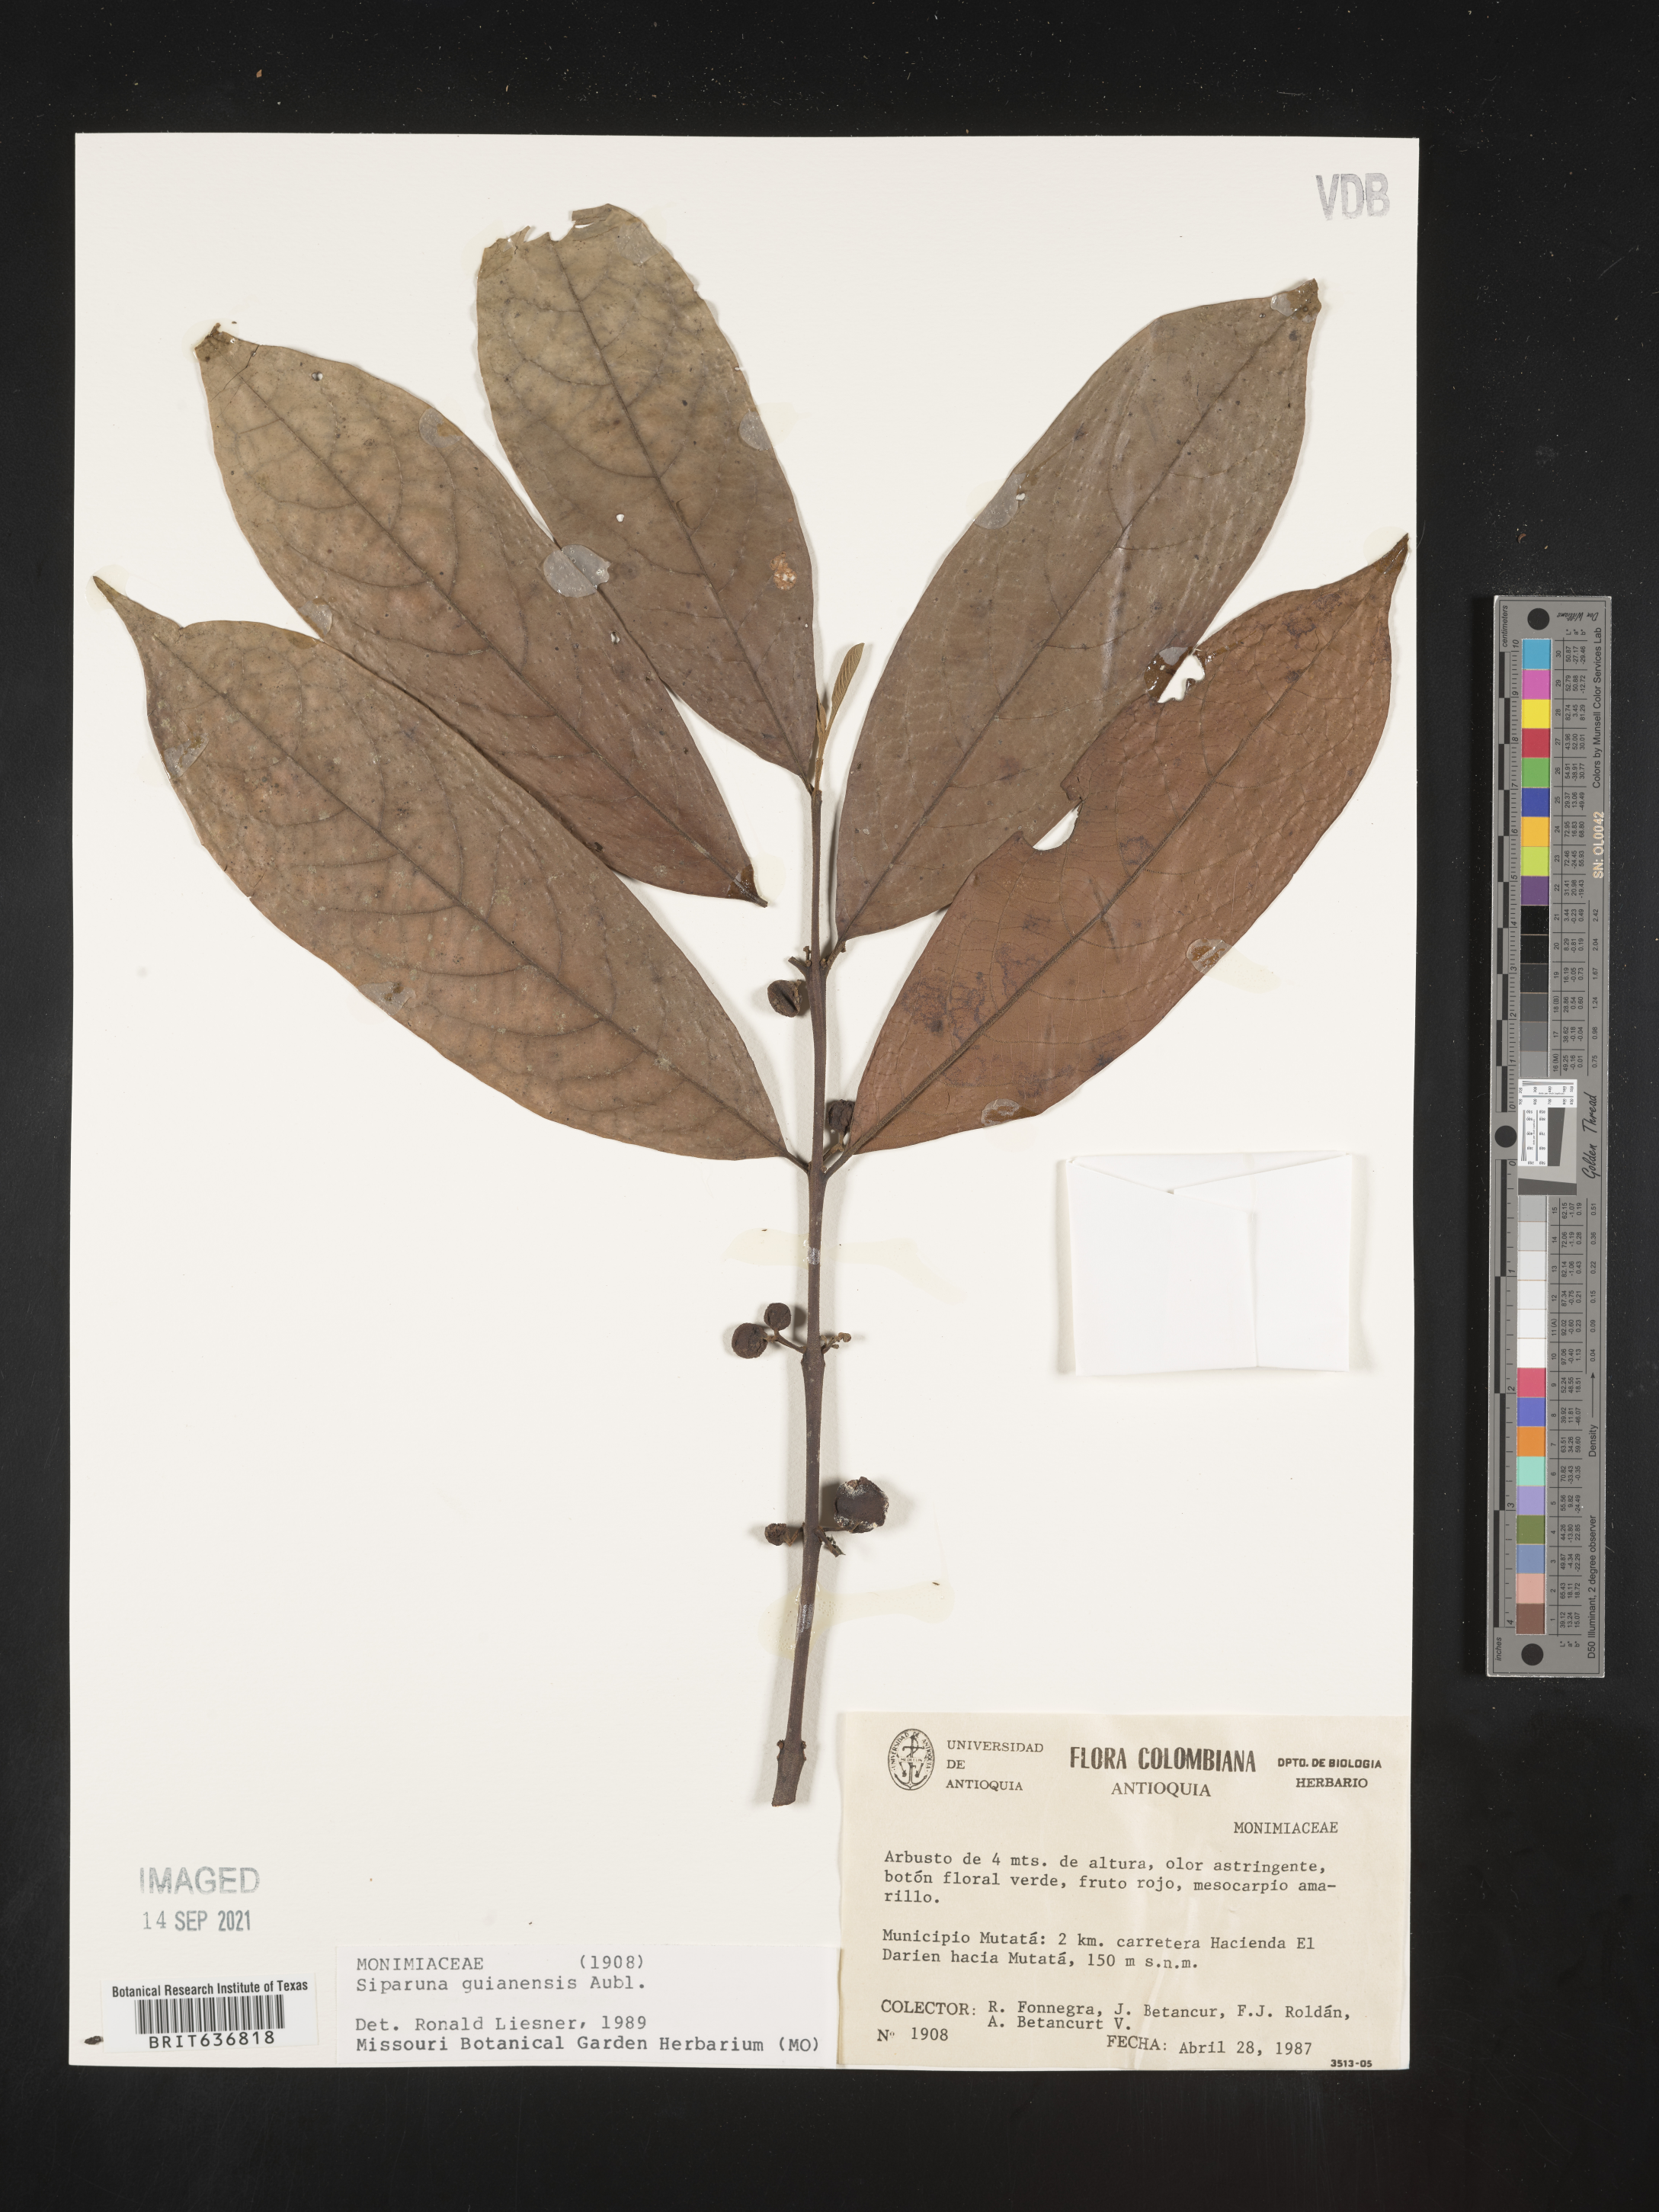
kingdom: Plantae
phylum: Tracheophyta
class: Magnoliopsida
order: Laurales
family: Siparunaceae
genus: Siparuna
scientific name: Siparuna
